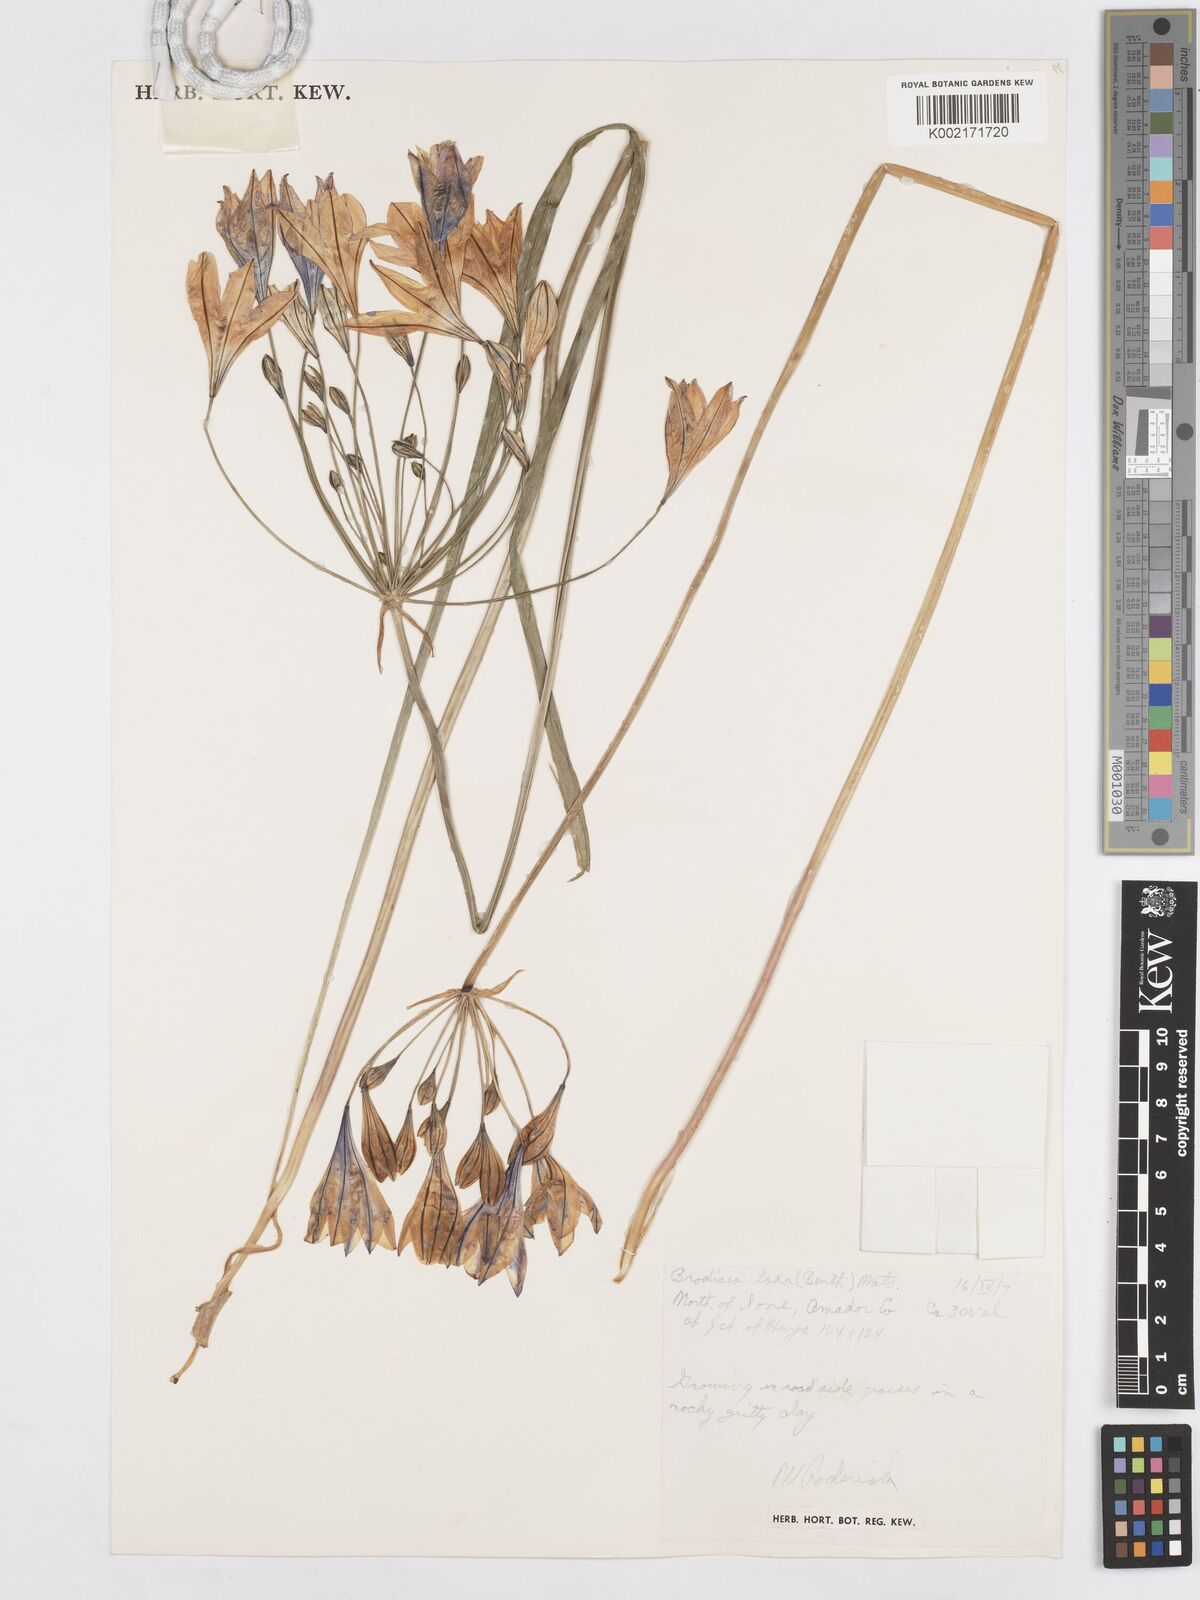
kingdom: Plantae
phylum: Tracheophyta
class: Liliopsida
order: Asparagales
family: Asparagaceae
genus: Triteleia
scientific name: Triteleia laxa
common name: Triplet-lily
